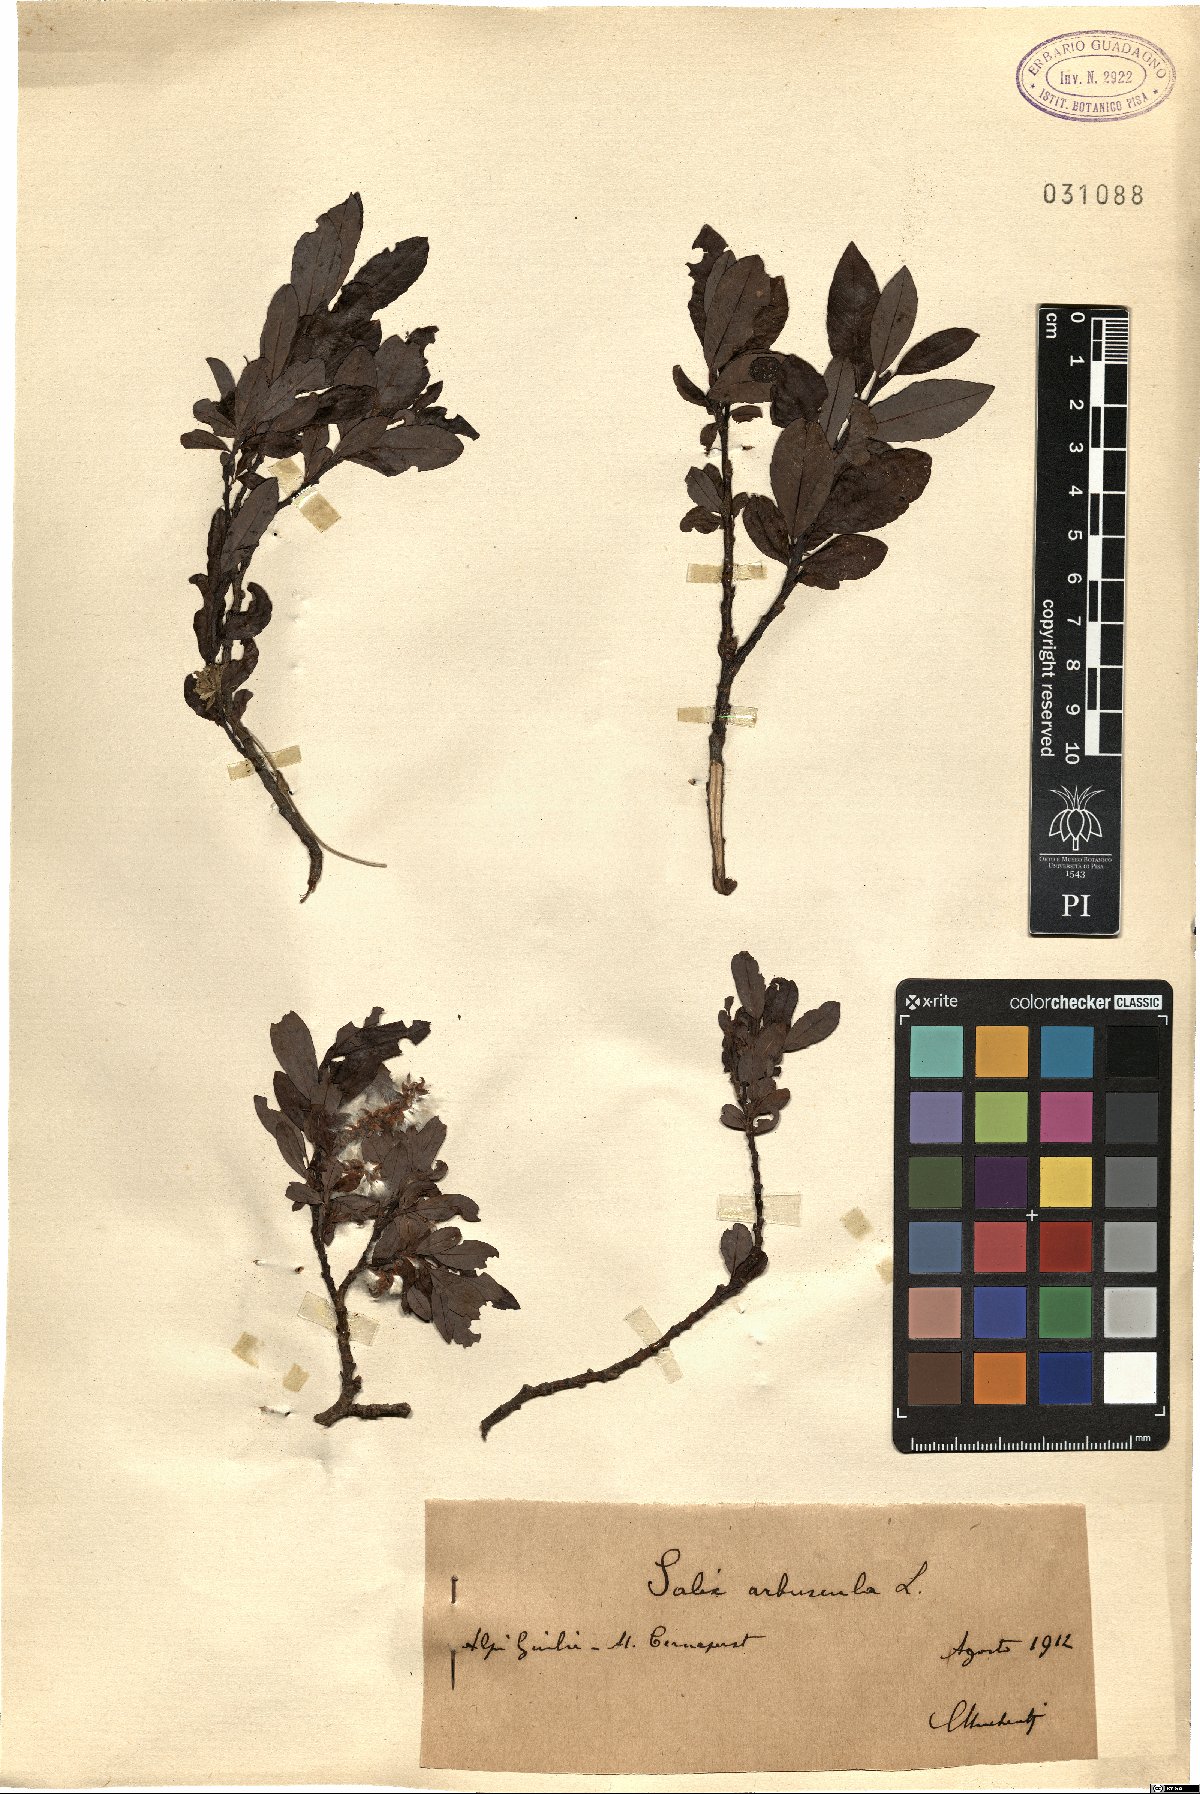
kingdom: Plantae
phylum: Tracheophyta
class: Magnoliopsida
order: Malpighiales
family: Salicaceae
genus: Salix
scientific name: Salix arbuscula
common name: Mountain willow
